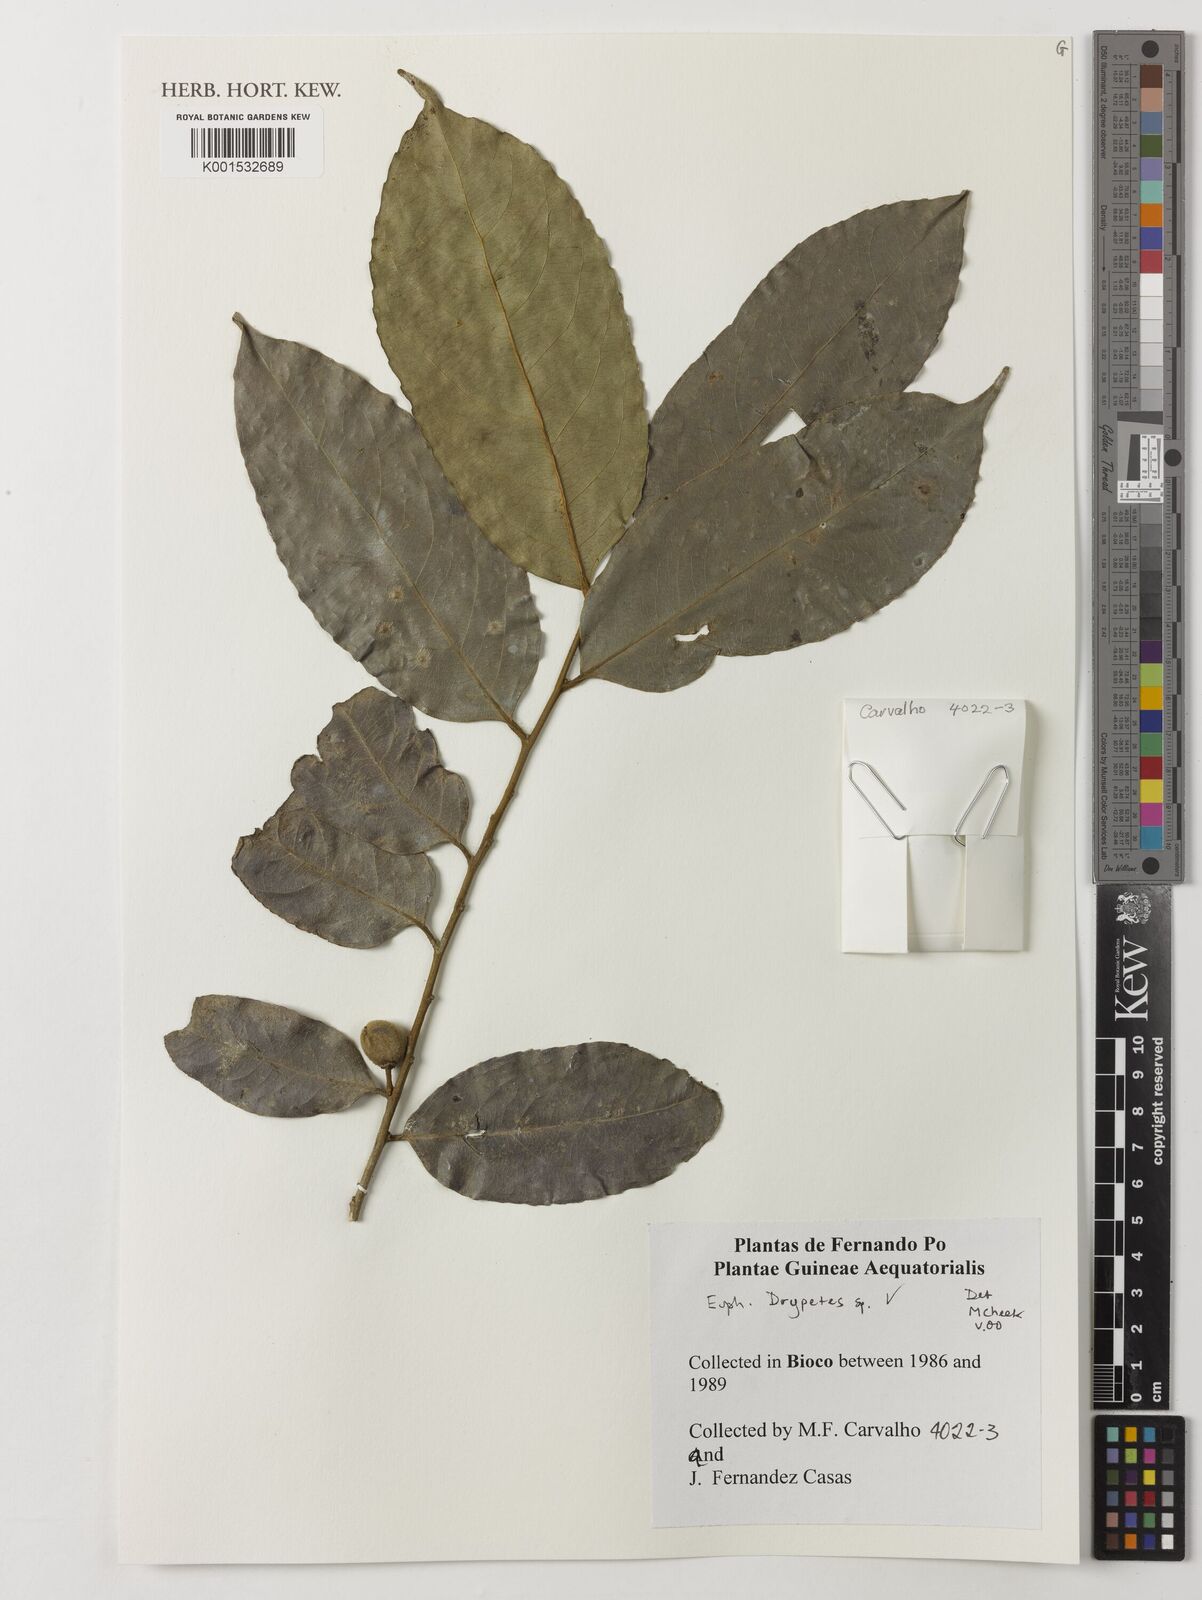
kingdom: Plantae
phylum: Tracheophyta
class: Magnoliopsida
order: Malpighiales
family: Putranjivaceae
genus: Drypetes
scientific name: Drypetes
